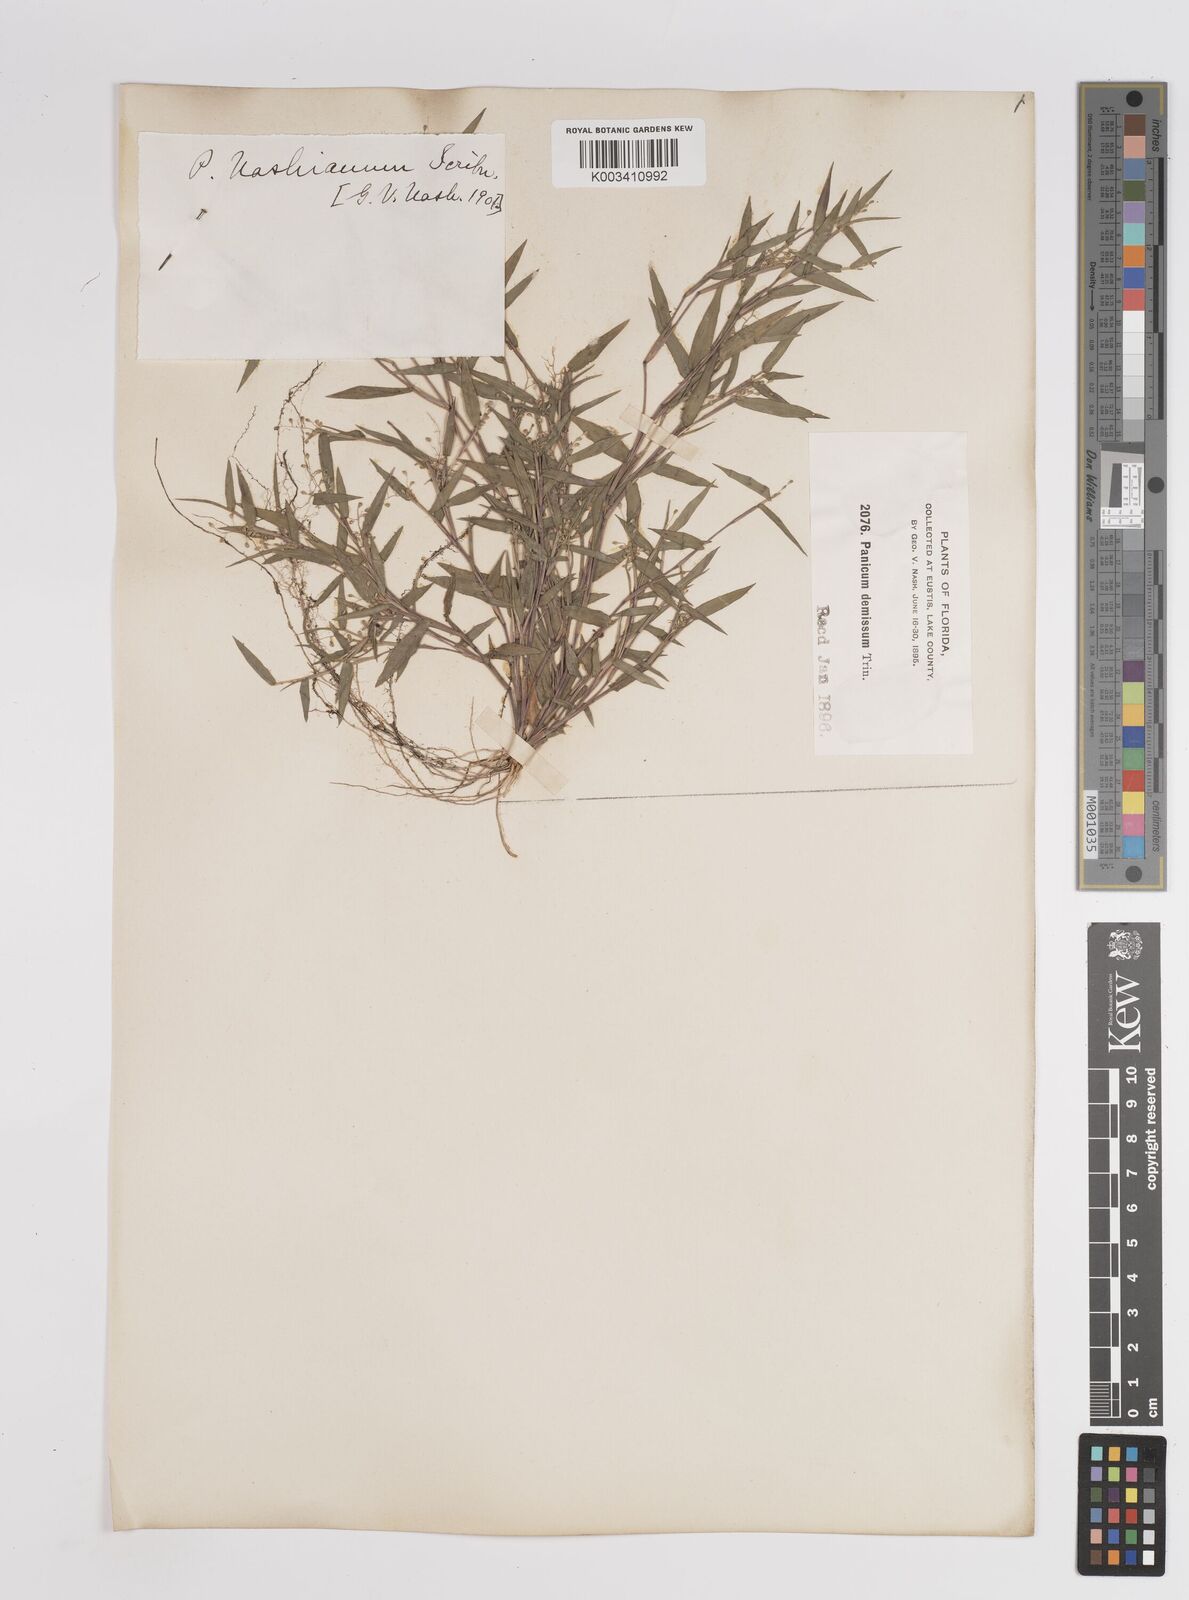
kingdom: Plantae
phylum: Tracheophyta
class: Liliopsida
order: Poales
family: Poaceae
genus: Dichanthelium
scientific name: Dichanthelium portoricense
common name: American panicgrass
